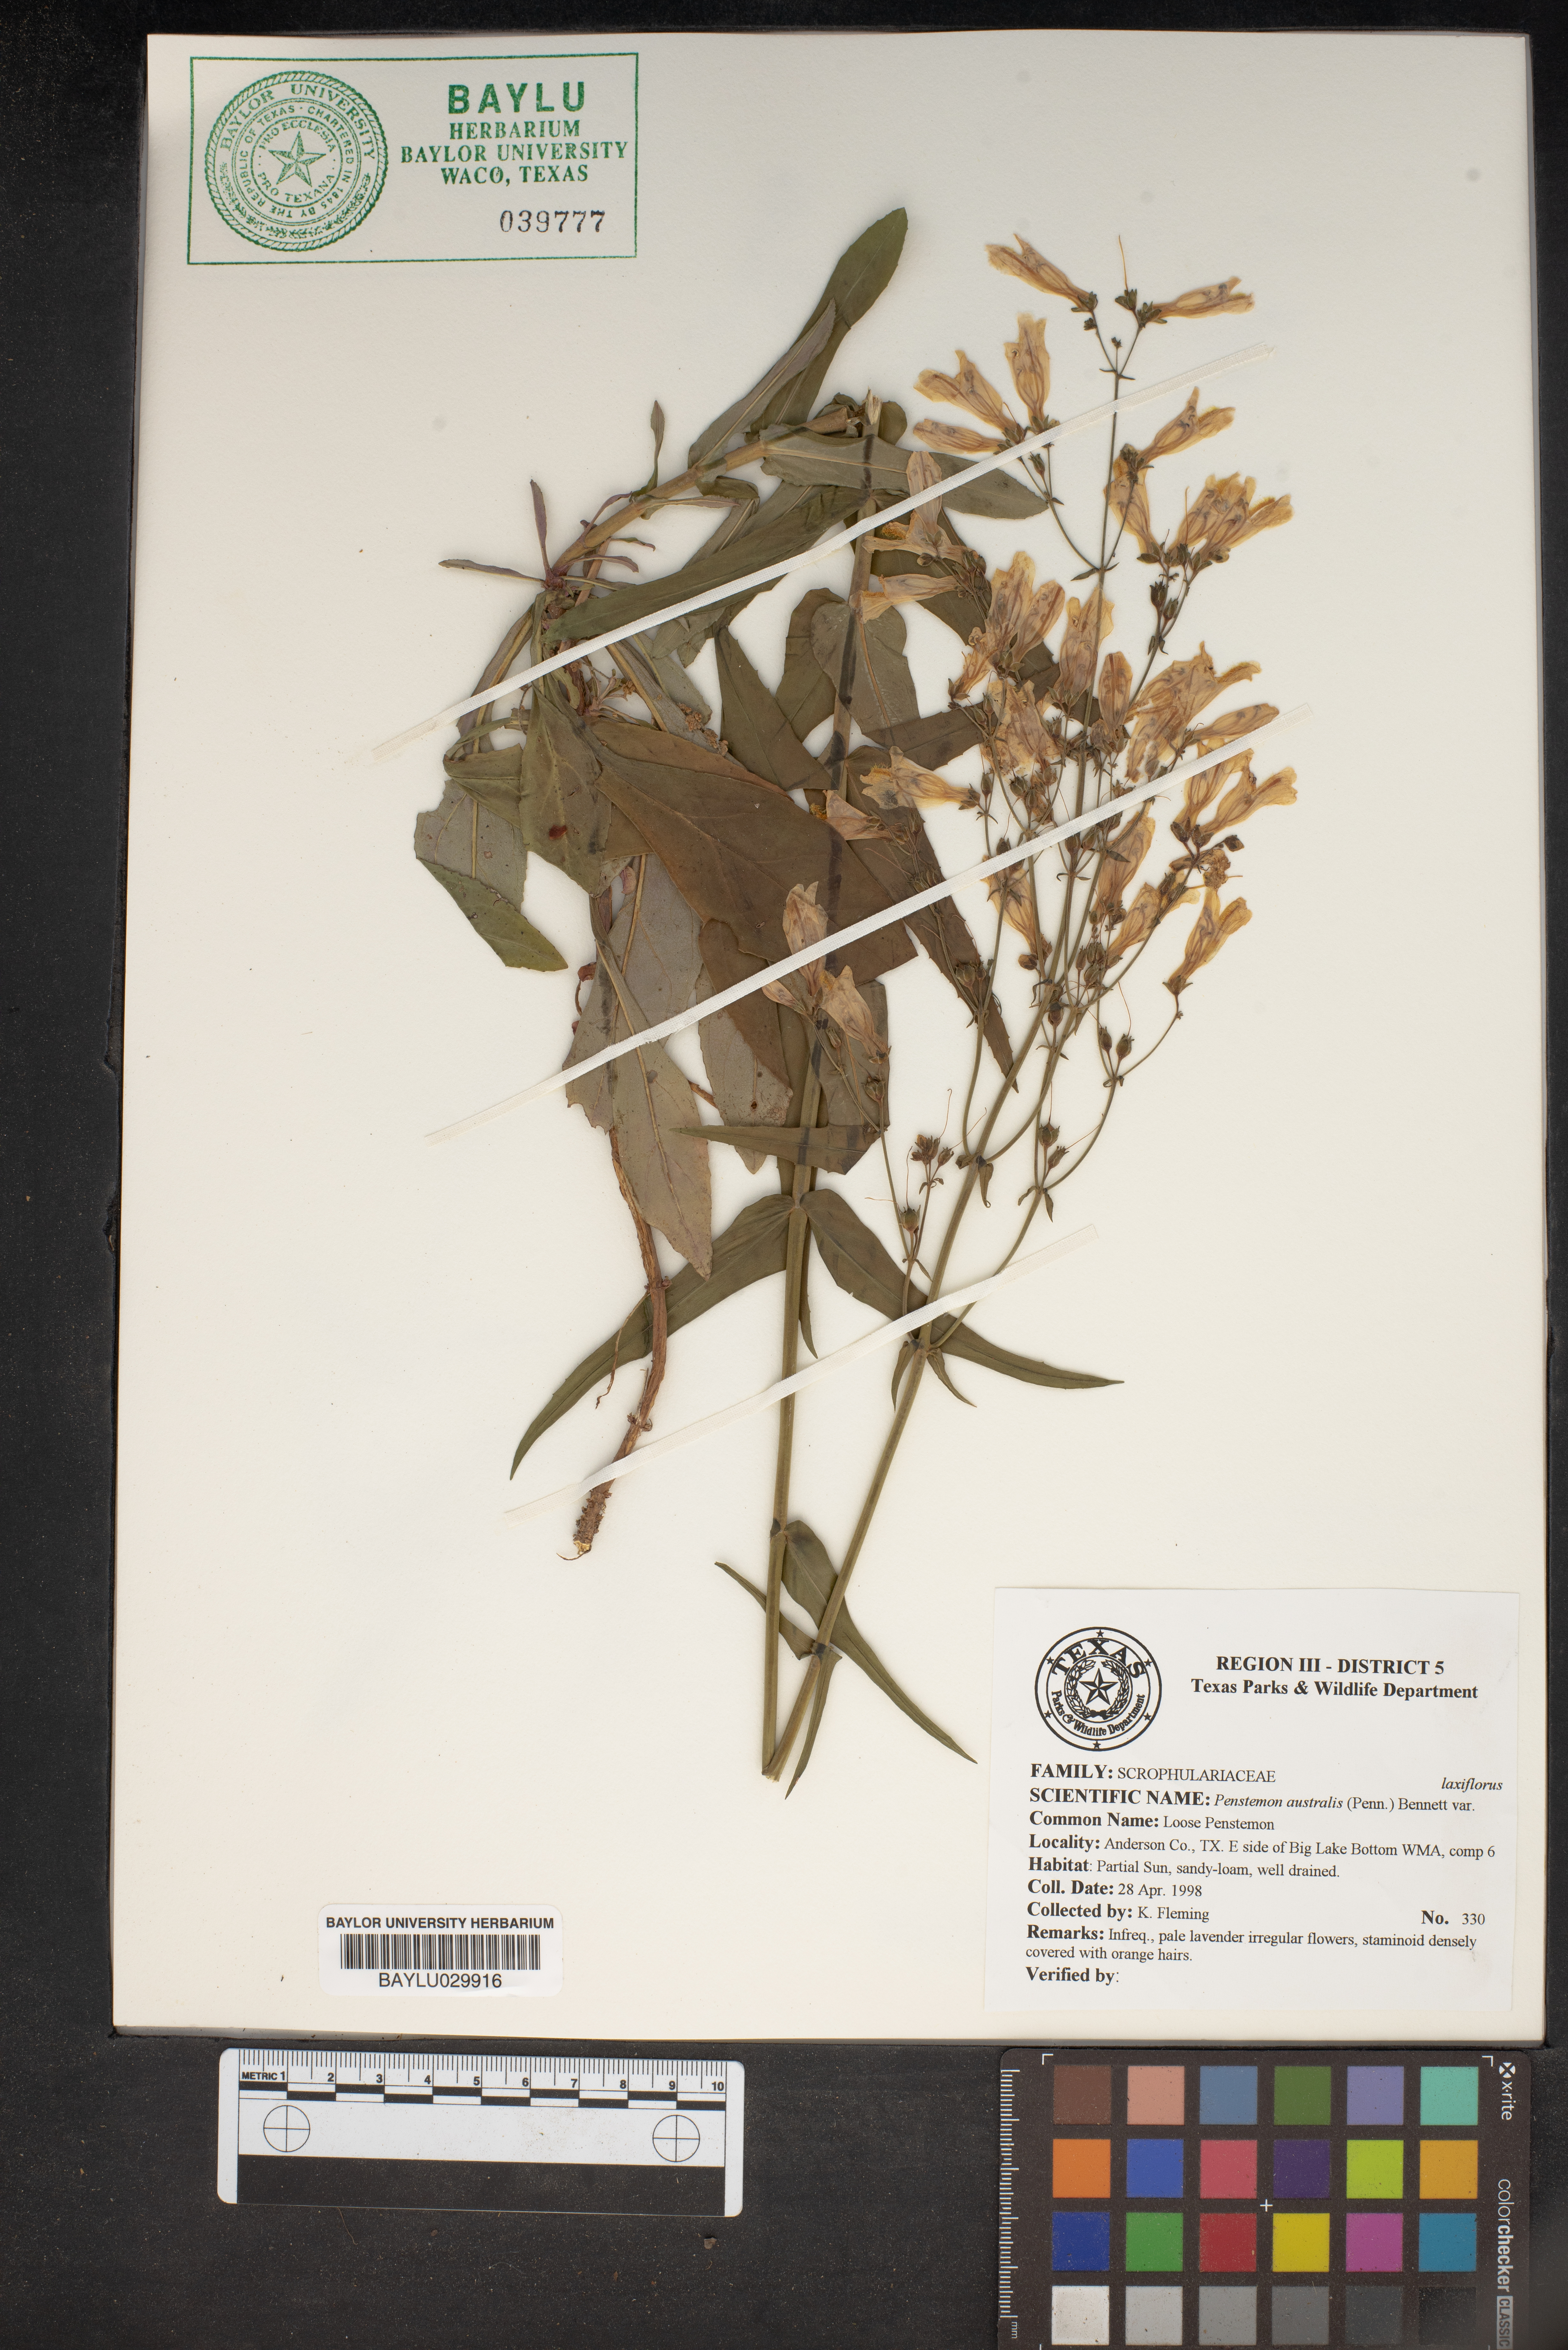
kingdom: Plantae
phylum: Tracheophyta
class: Magnoliopsida
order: Lamiales
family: Plantaginaceae
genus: Penstemon
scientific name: Penstemon australis
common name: Southeastern beardtongue
